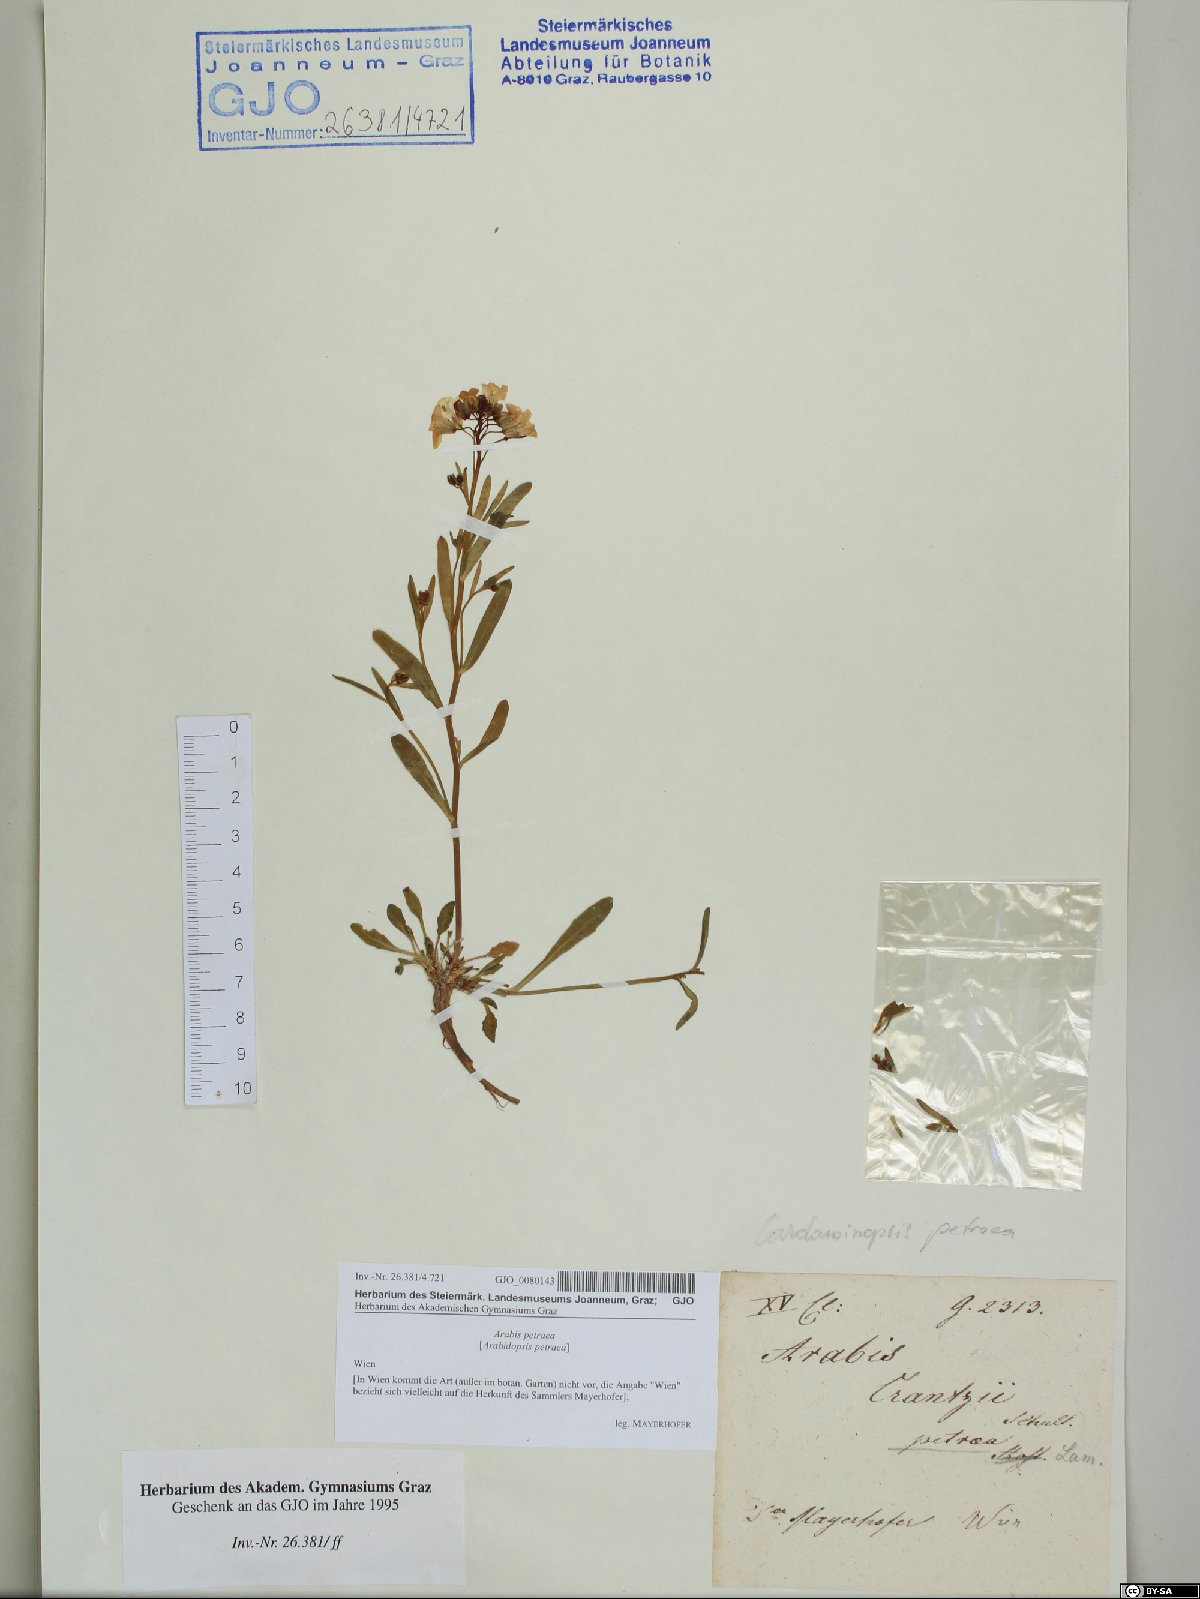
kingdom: Plantae
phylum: Tracheophyta
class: Magnoliopsida
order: Brassicales
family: Brassicaceae
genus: Arabidopsis
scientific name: Arabidopsis lyrata
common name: Lyrate rockcress
